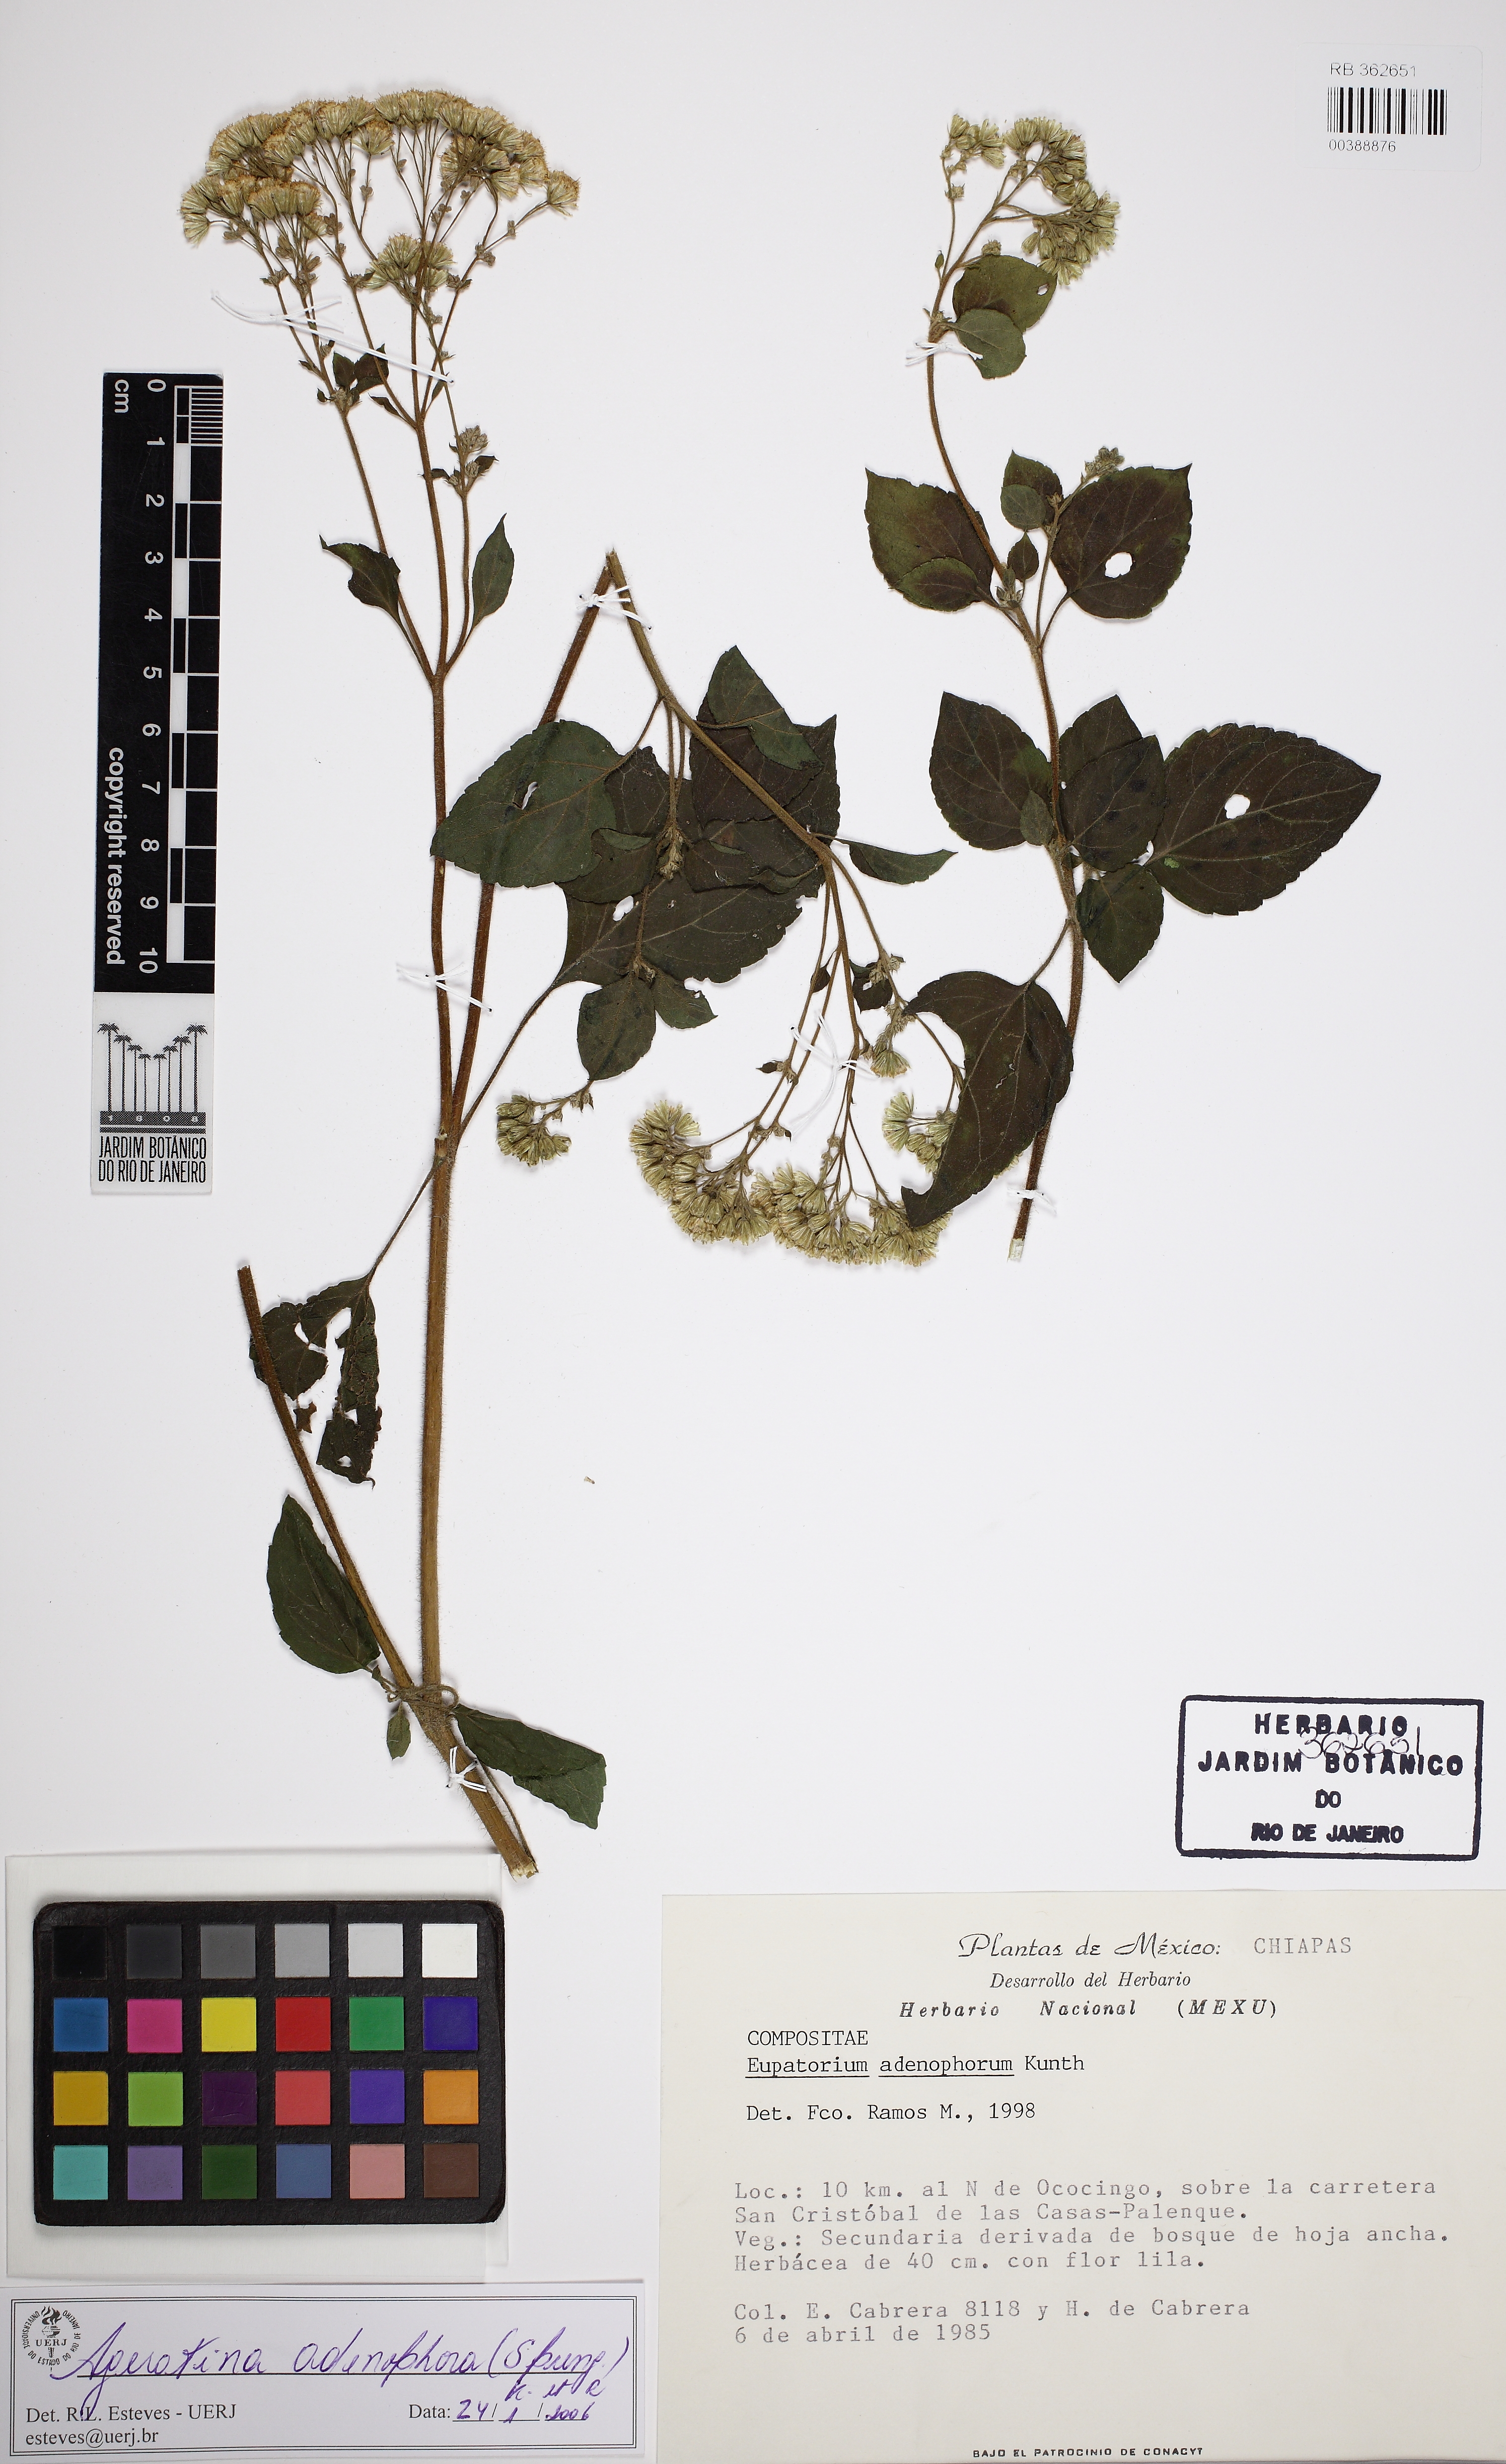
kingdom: Plantae
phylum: Tracheophyta
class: Magnoliopsida
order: Asterales
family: Asteraceae
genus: Ageratina
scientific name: Ageratina adenophora
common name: Sticky snakeroot
